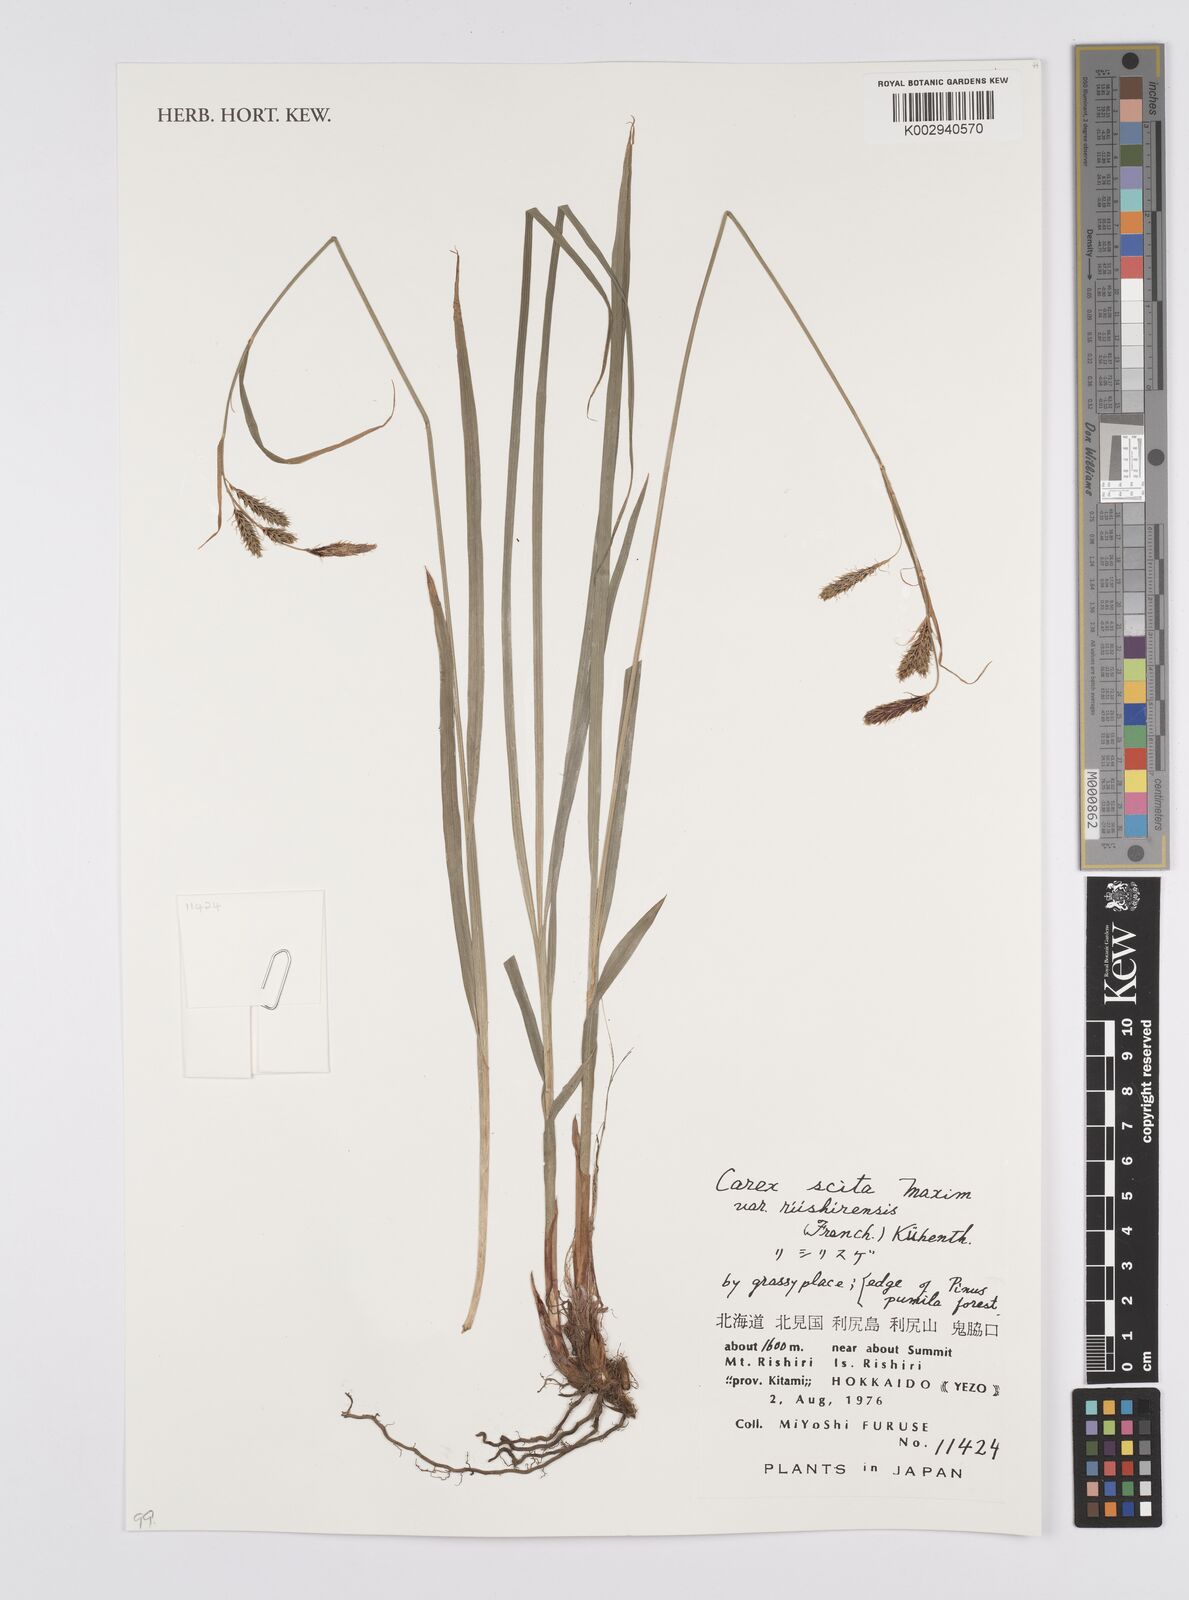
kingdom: Plantae
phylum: Tracheophyta
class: Liliopsida
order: Poales
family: Cyperaceae
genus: Carex
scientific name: Carex scita
